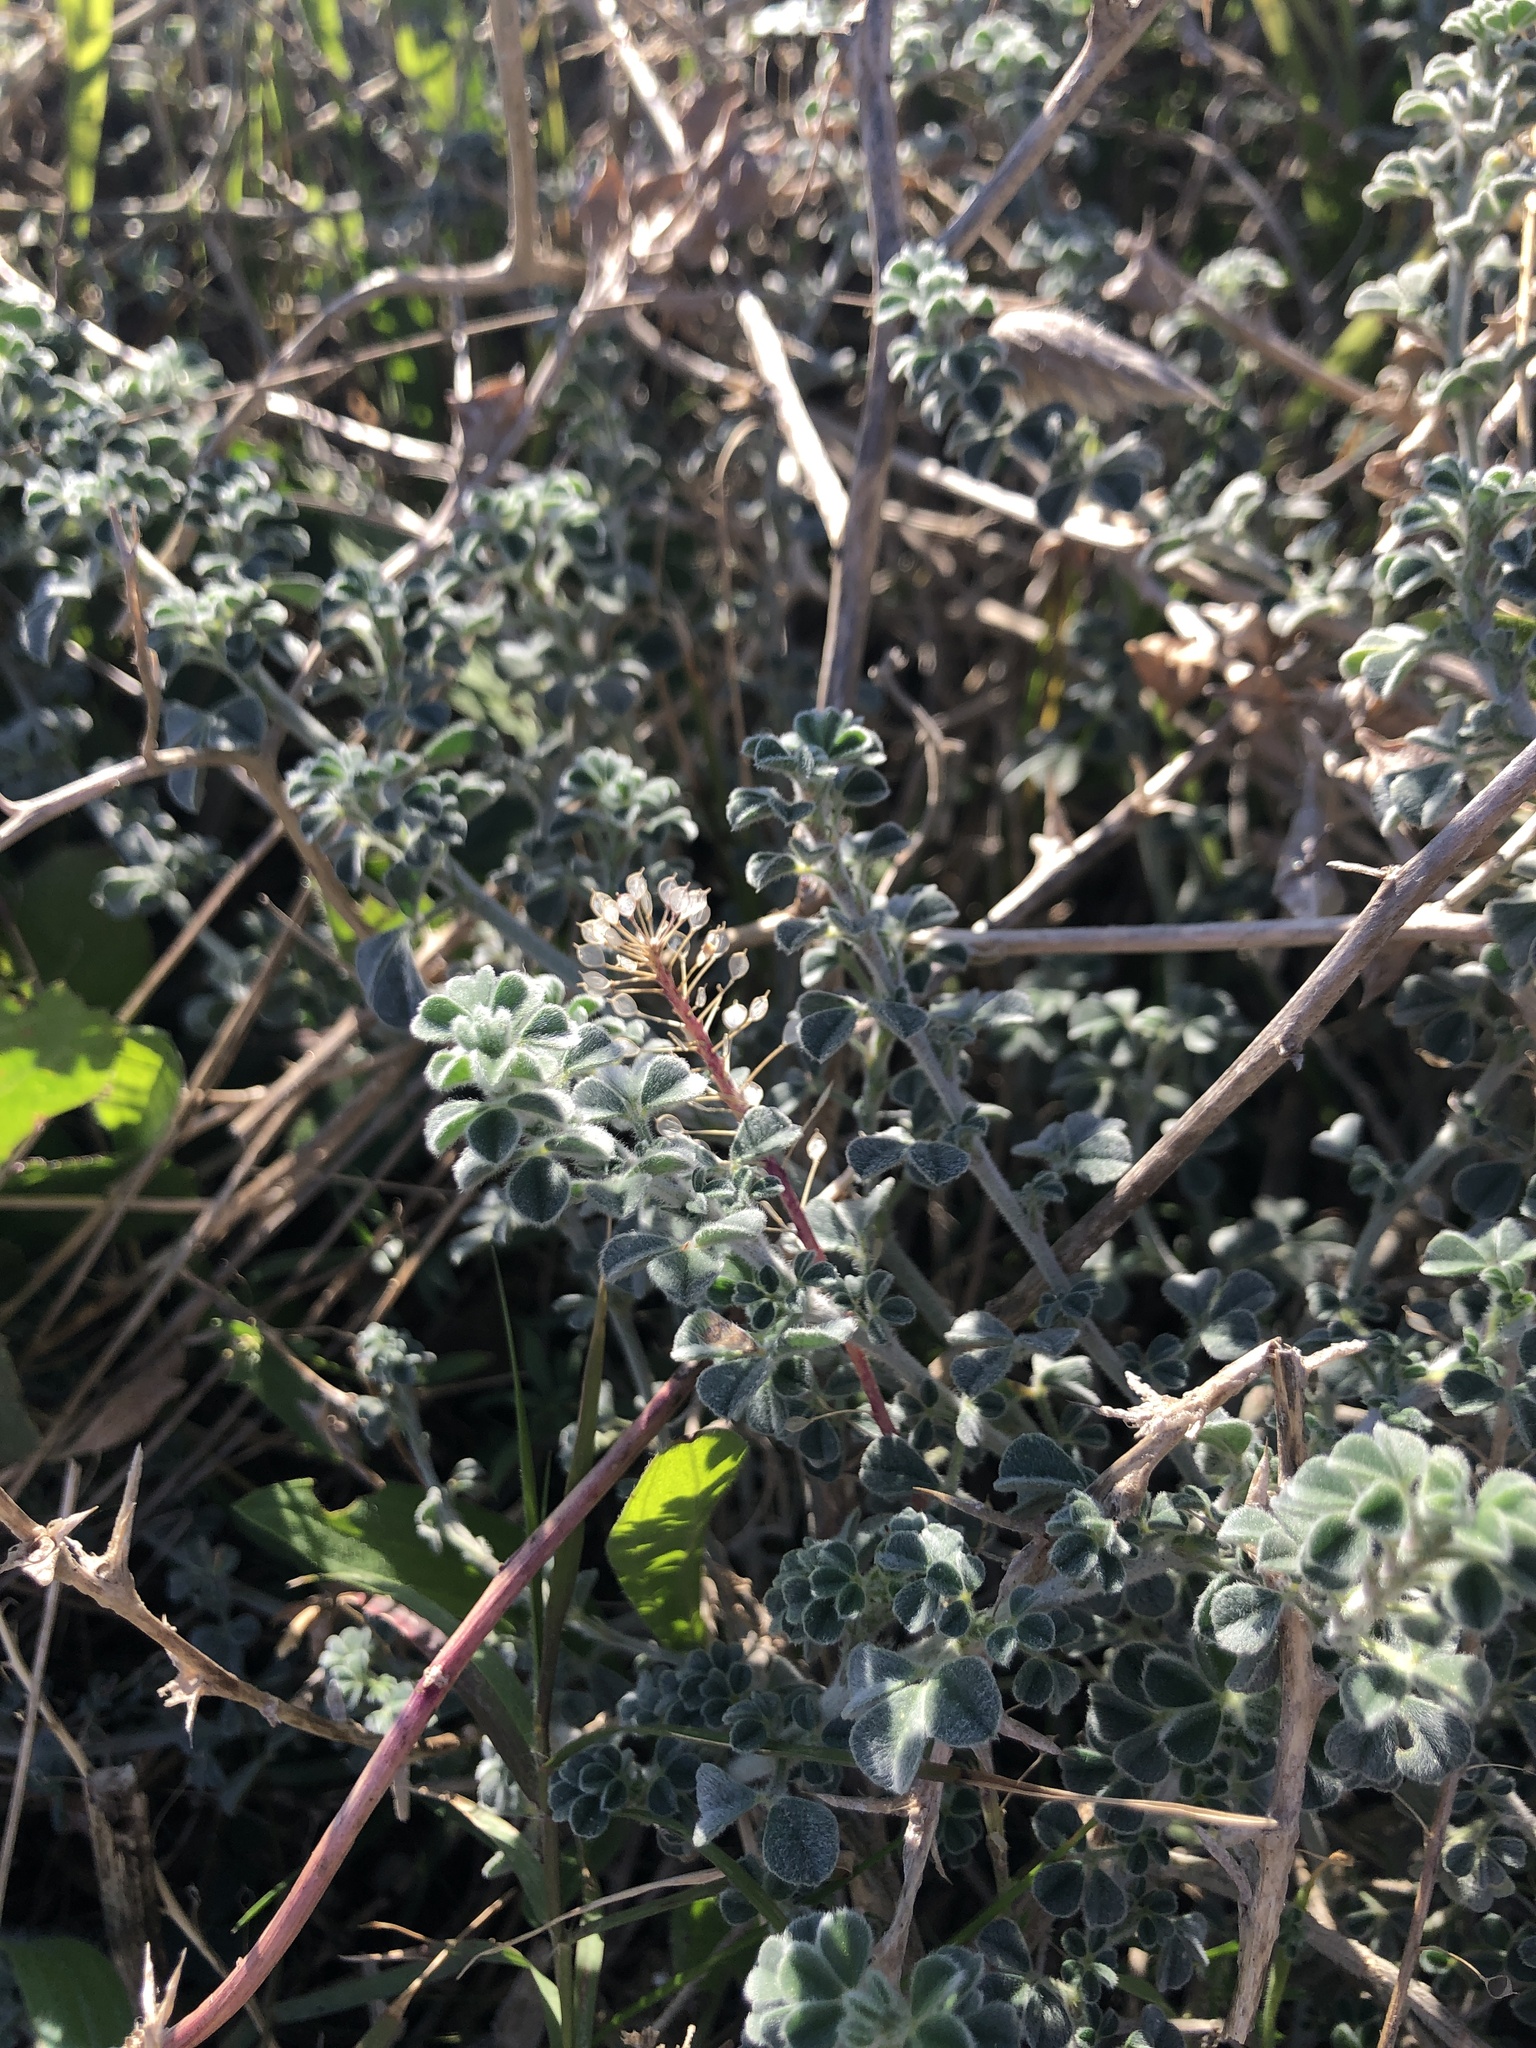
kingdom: Plantae
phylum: Tracheophyta
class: Magnoliopsida
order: Fabales
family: Fabaceae
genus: Medicago
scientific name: Medicago marina
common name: Sea medick
